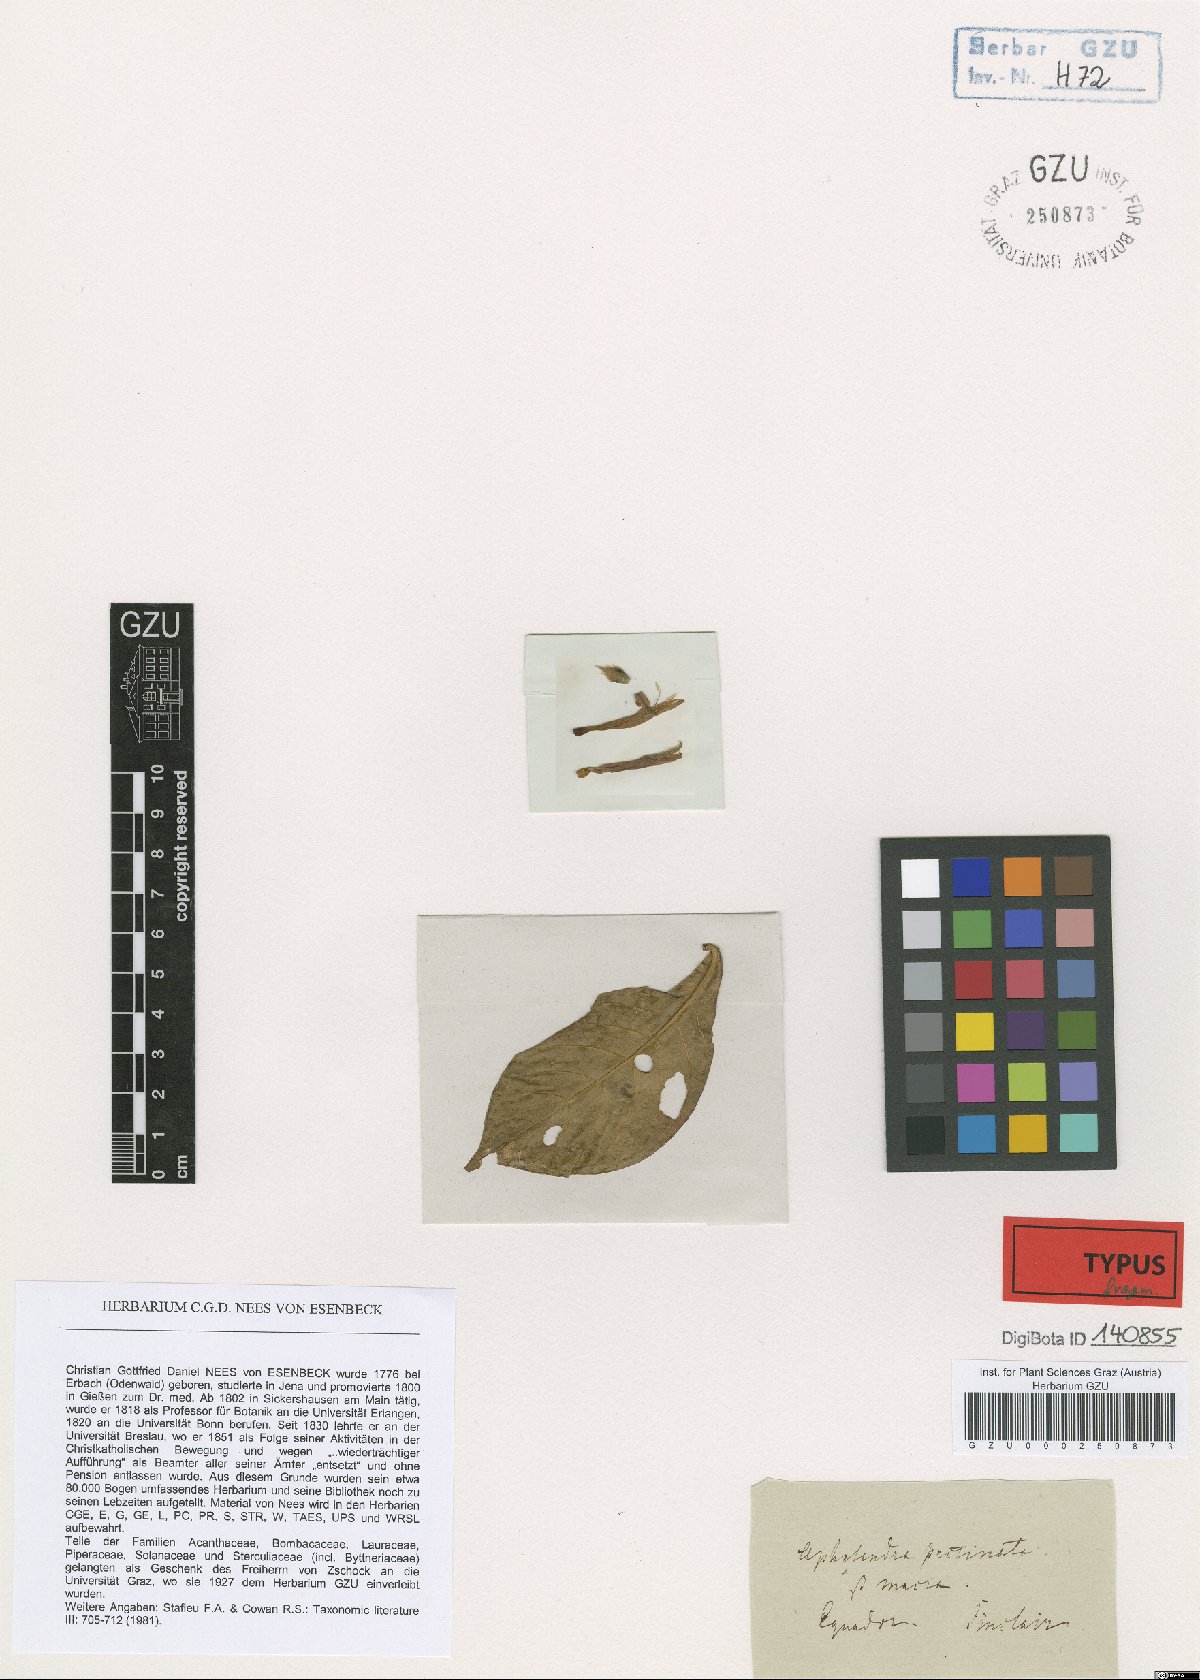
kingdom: Plantae
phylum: Tracheophyta
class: Magnoliopsida
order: Lamiales
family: Acanthaceae
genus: Aphelandra
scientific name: Aphelandra scabra
